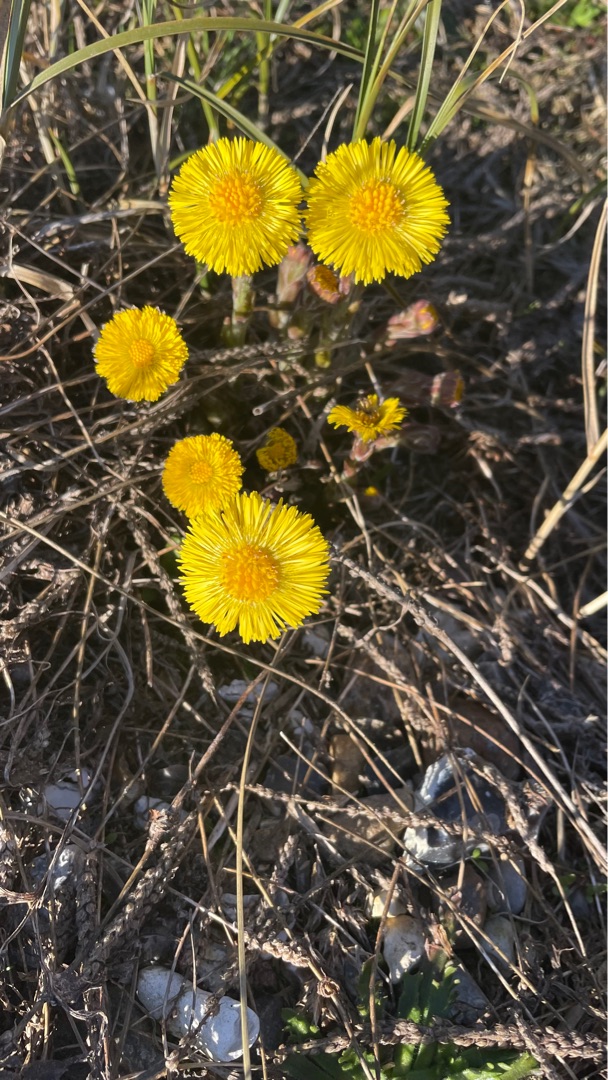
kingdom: Plantae
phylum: Tracheophyta
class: Magnoliopsida
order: Asterales
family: Asteraceae
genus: Tussilago
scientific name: Tussilago farfara
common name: Følfod
